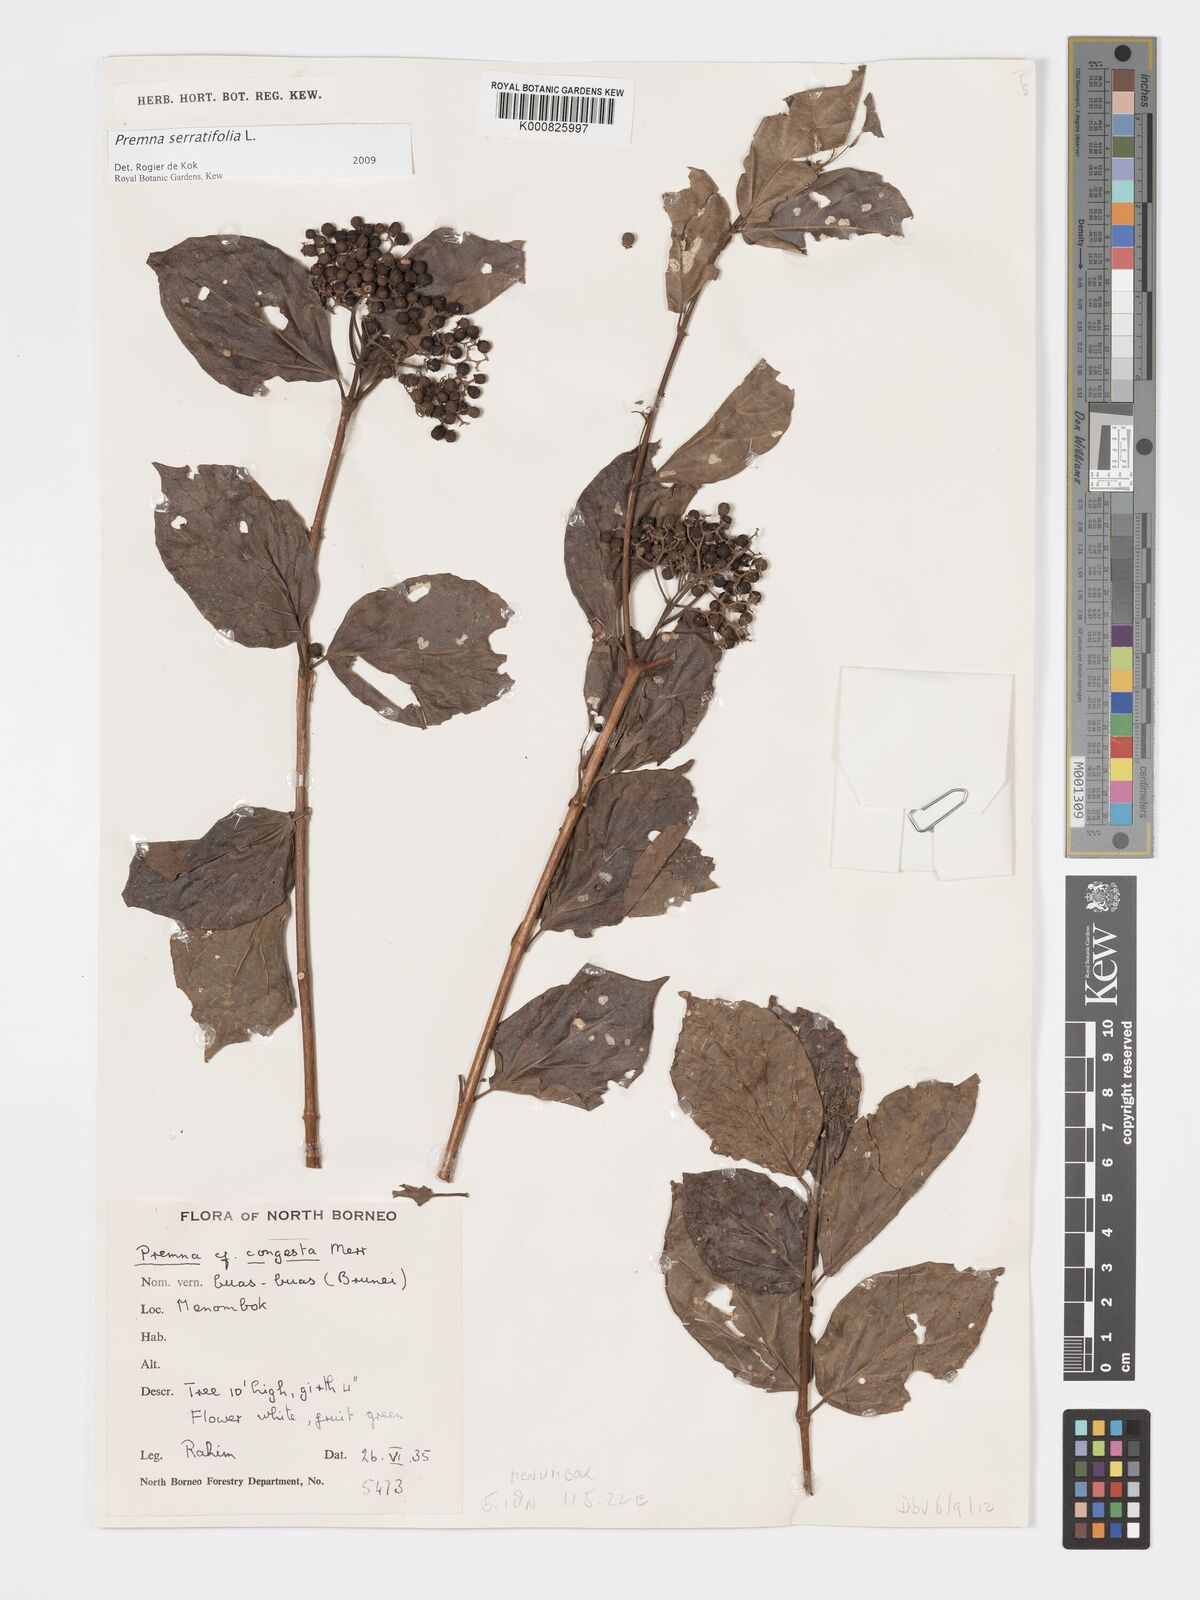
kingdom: Plantae
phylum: Tracheophyta
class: Magnoliopsida
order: Lamiales
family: Lamiaceae
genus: Premna
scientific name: Premna serratifolia
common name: Bastard guelder
